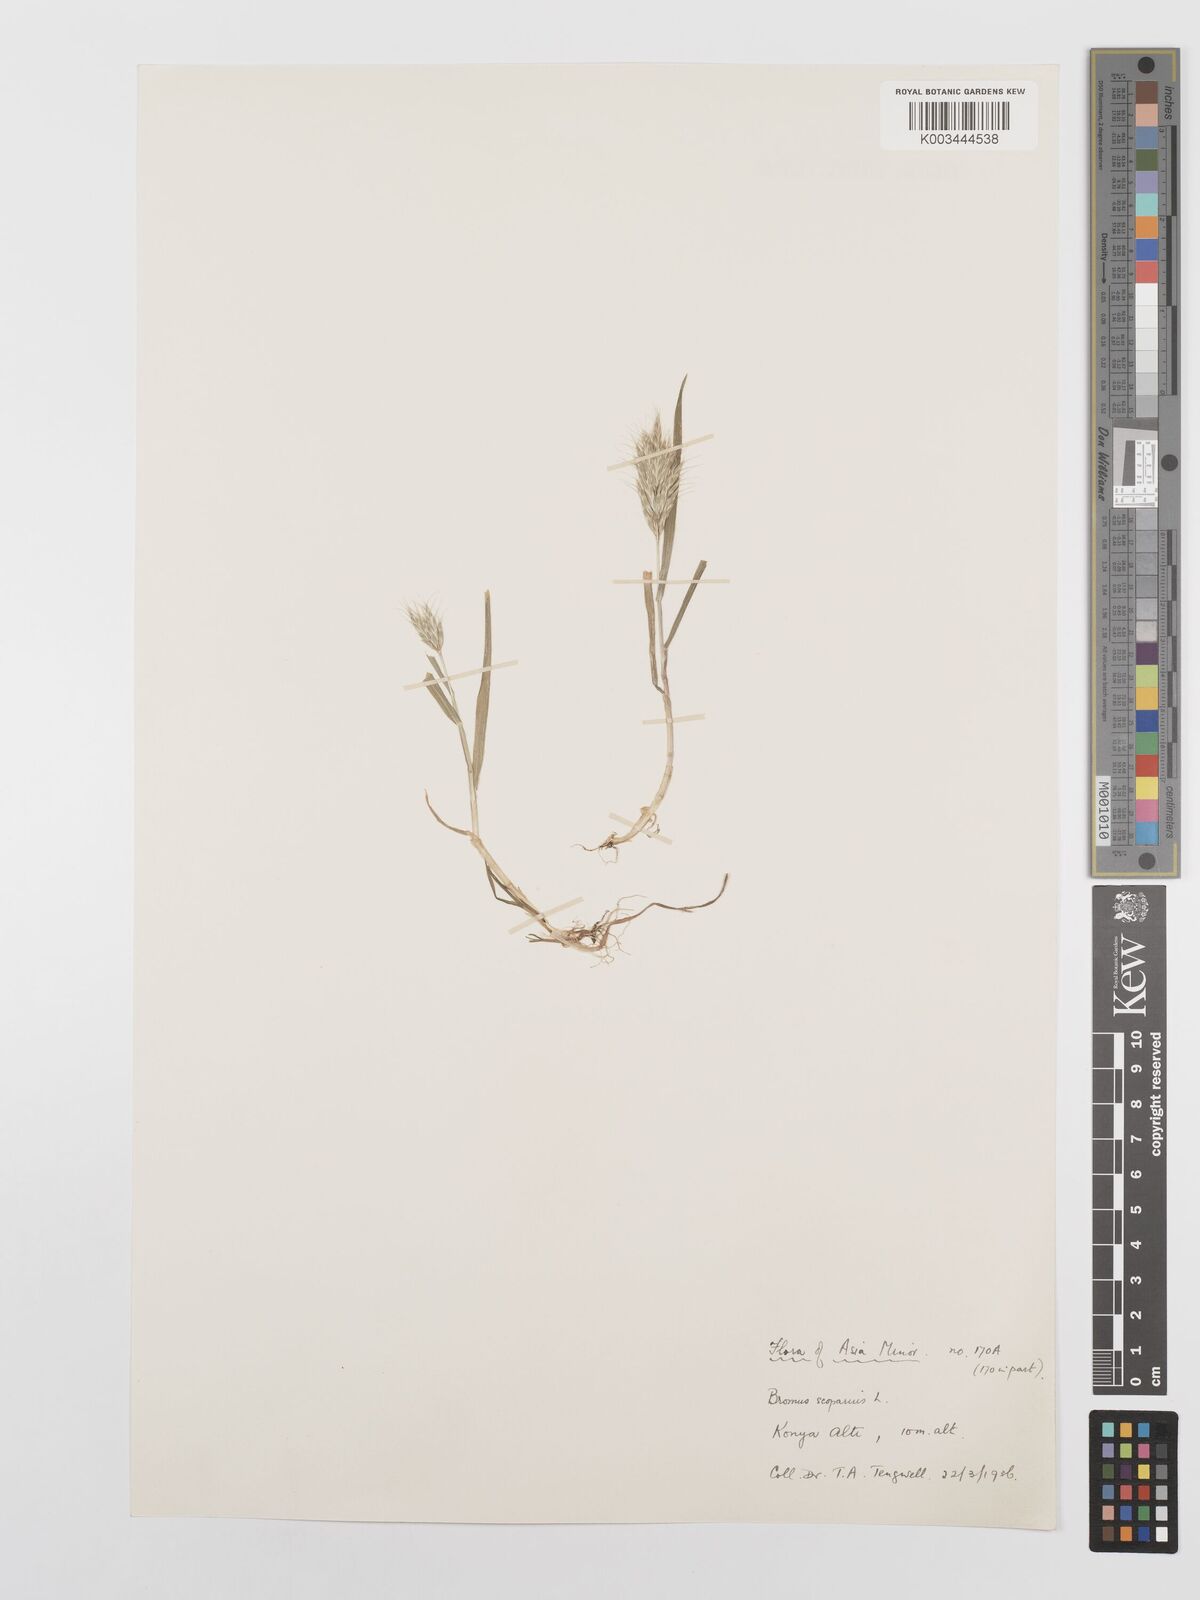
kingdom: Plantae
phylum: Tracheophyta
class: Liliopsida
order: Poales
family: Poaceae
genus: Bromus
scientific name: Bromus scoparius
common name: Broom brome
